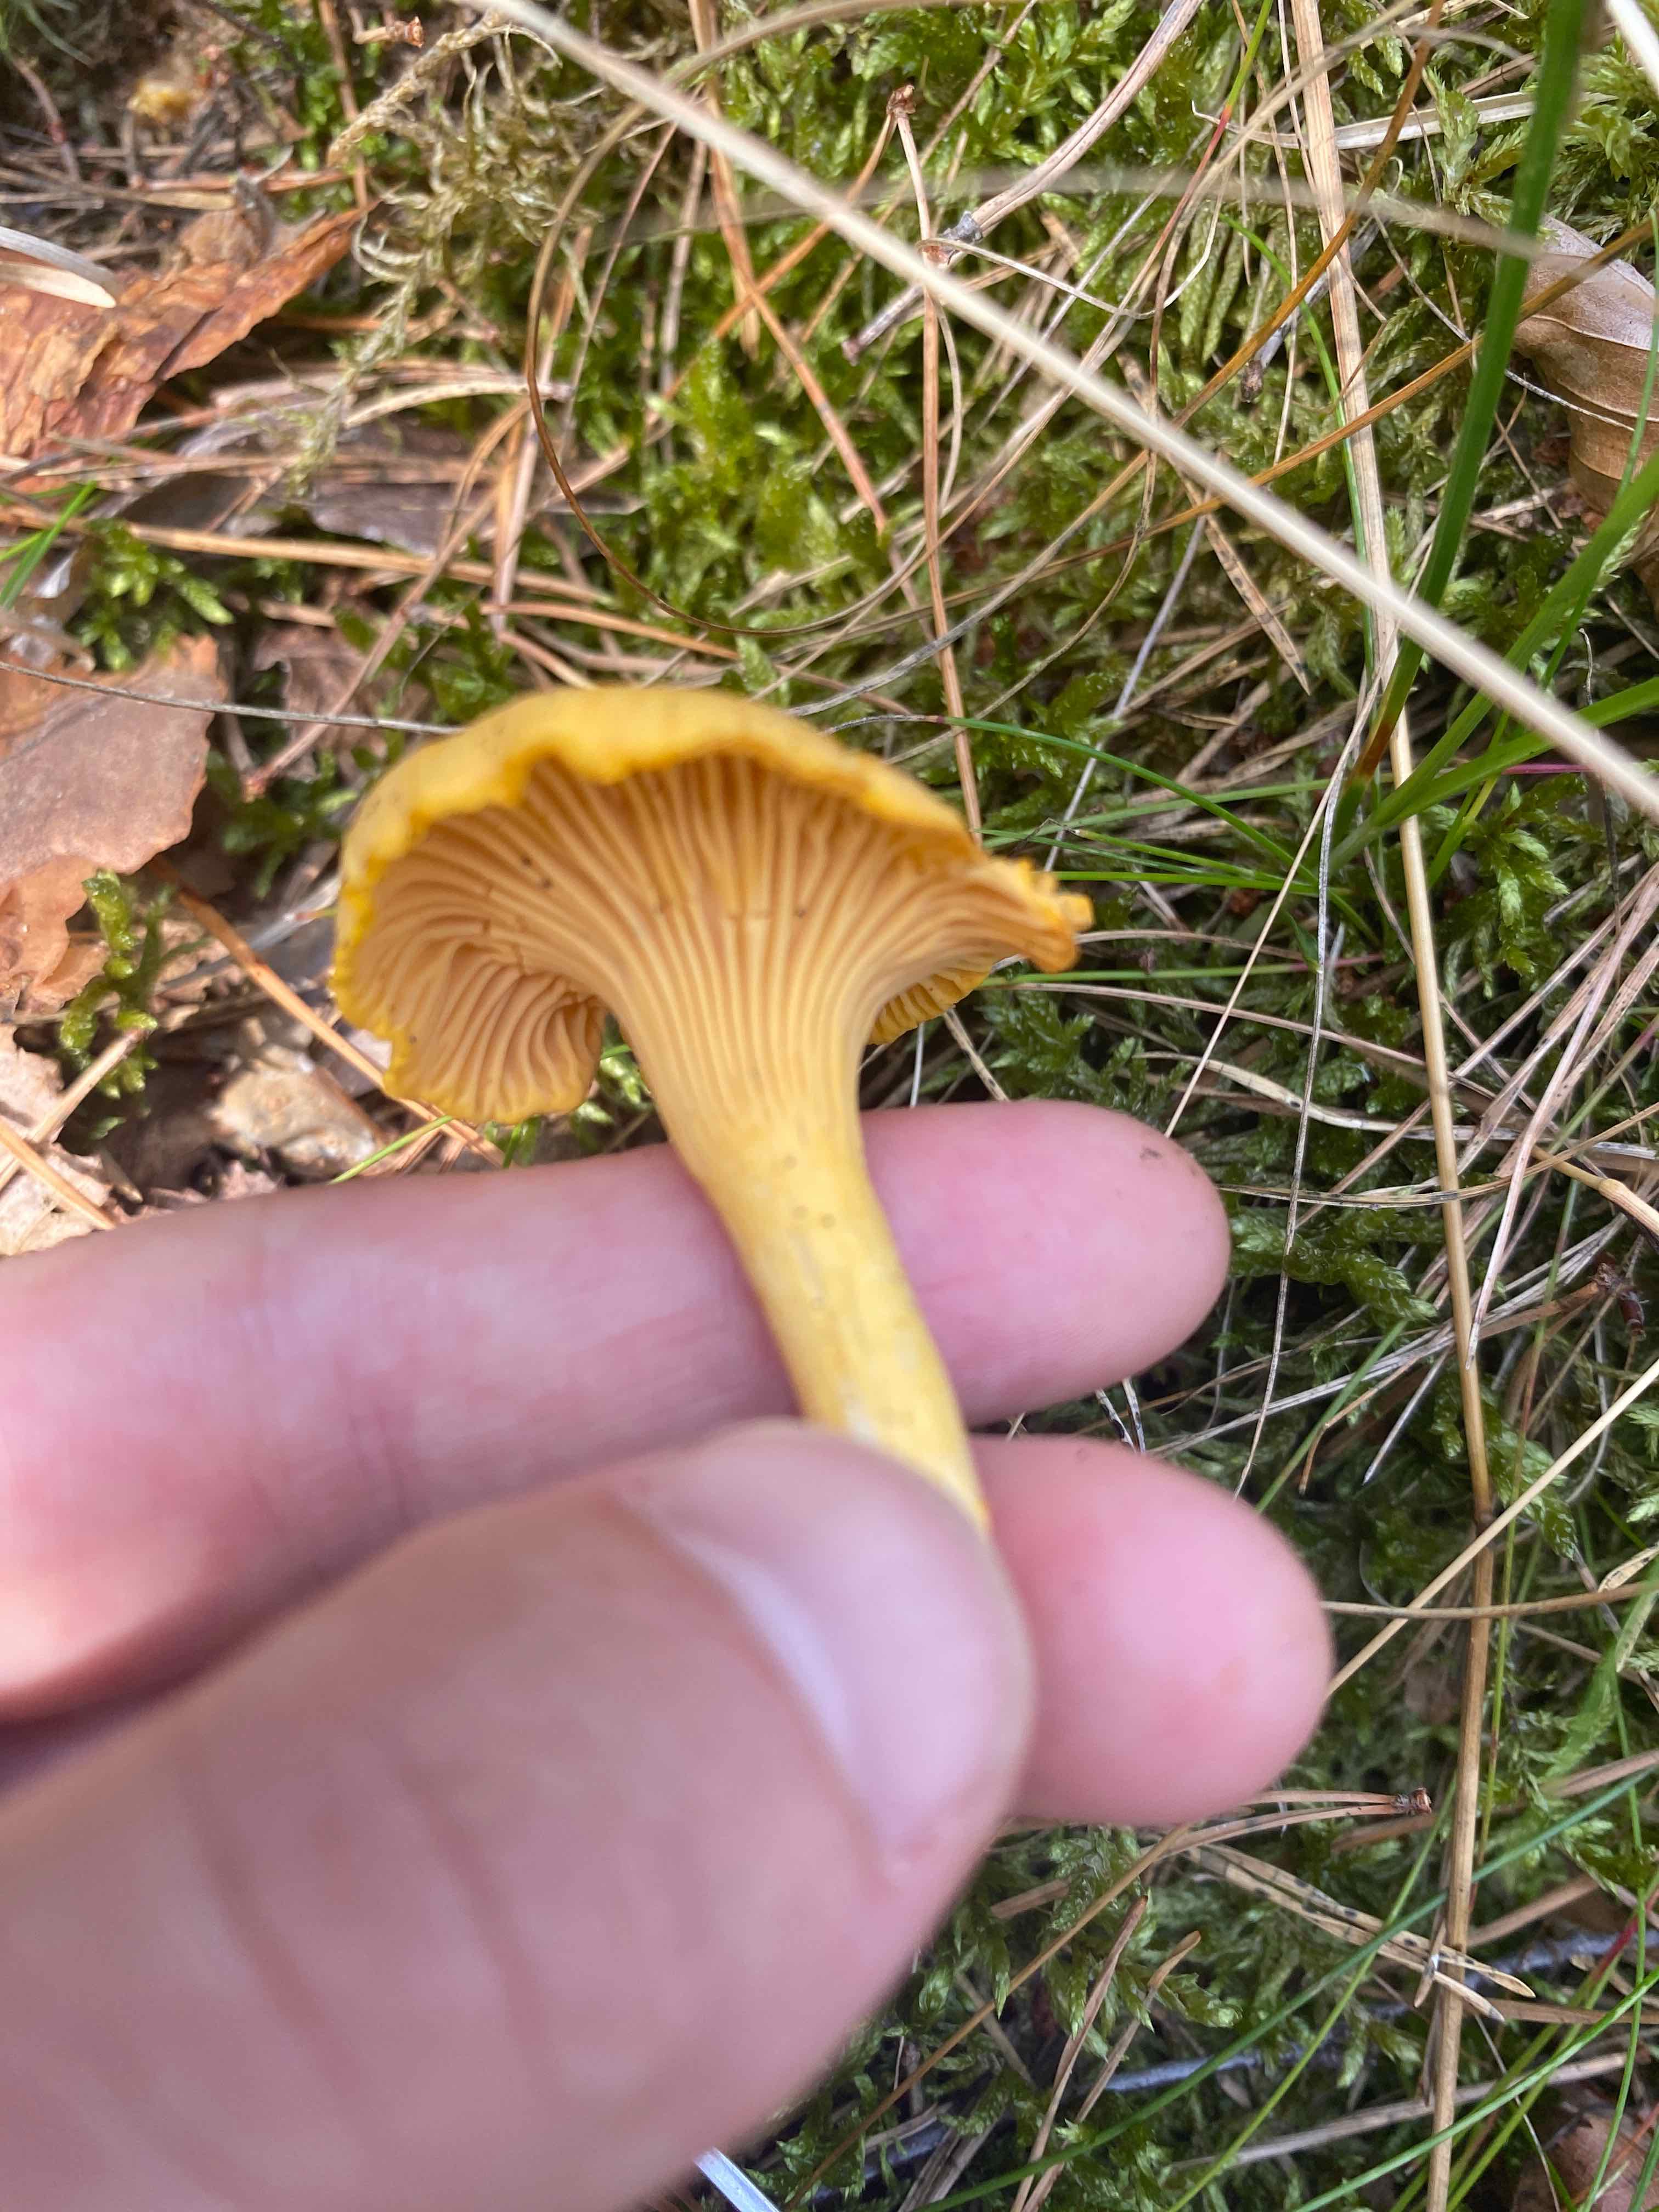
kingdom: Fungi
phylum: Basidiomycota
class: Agaricomycetes
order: Cantharellales
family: Hydnaceae
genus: Cantharellus
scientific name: Cantharellus cibarius
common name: almindelig kantarel
